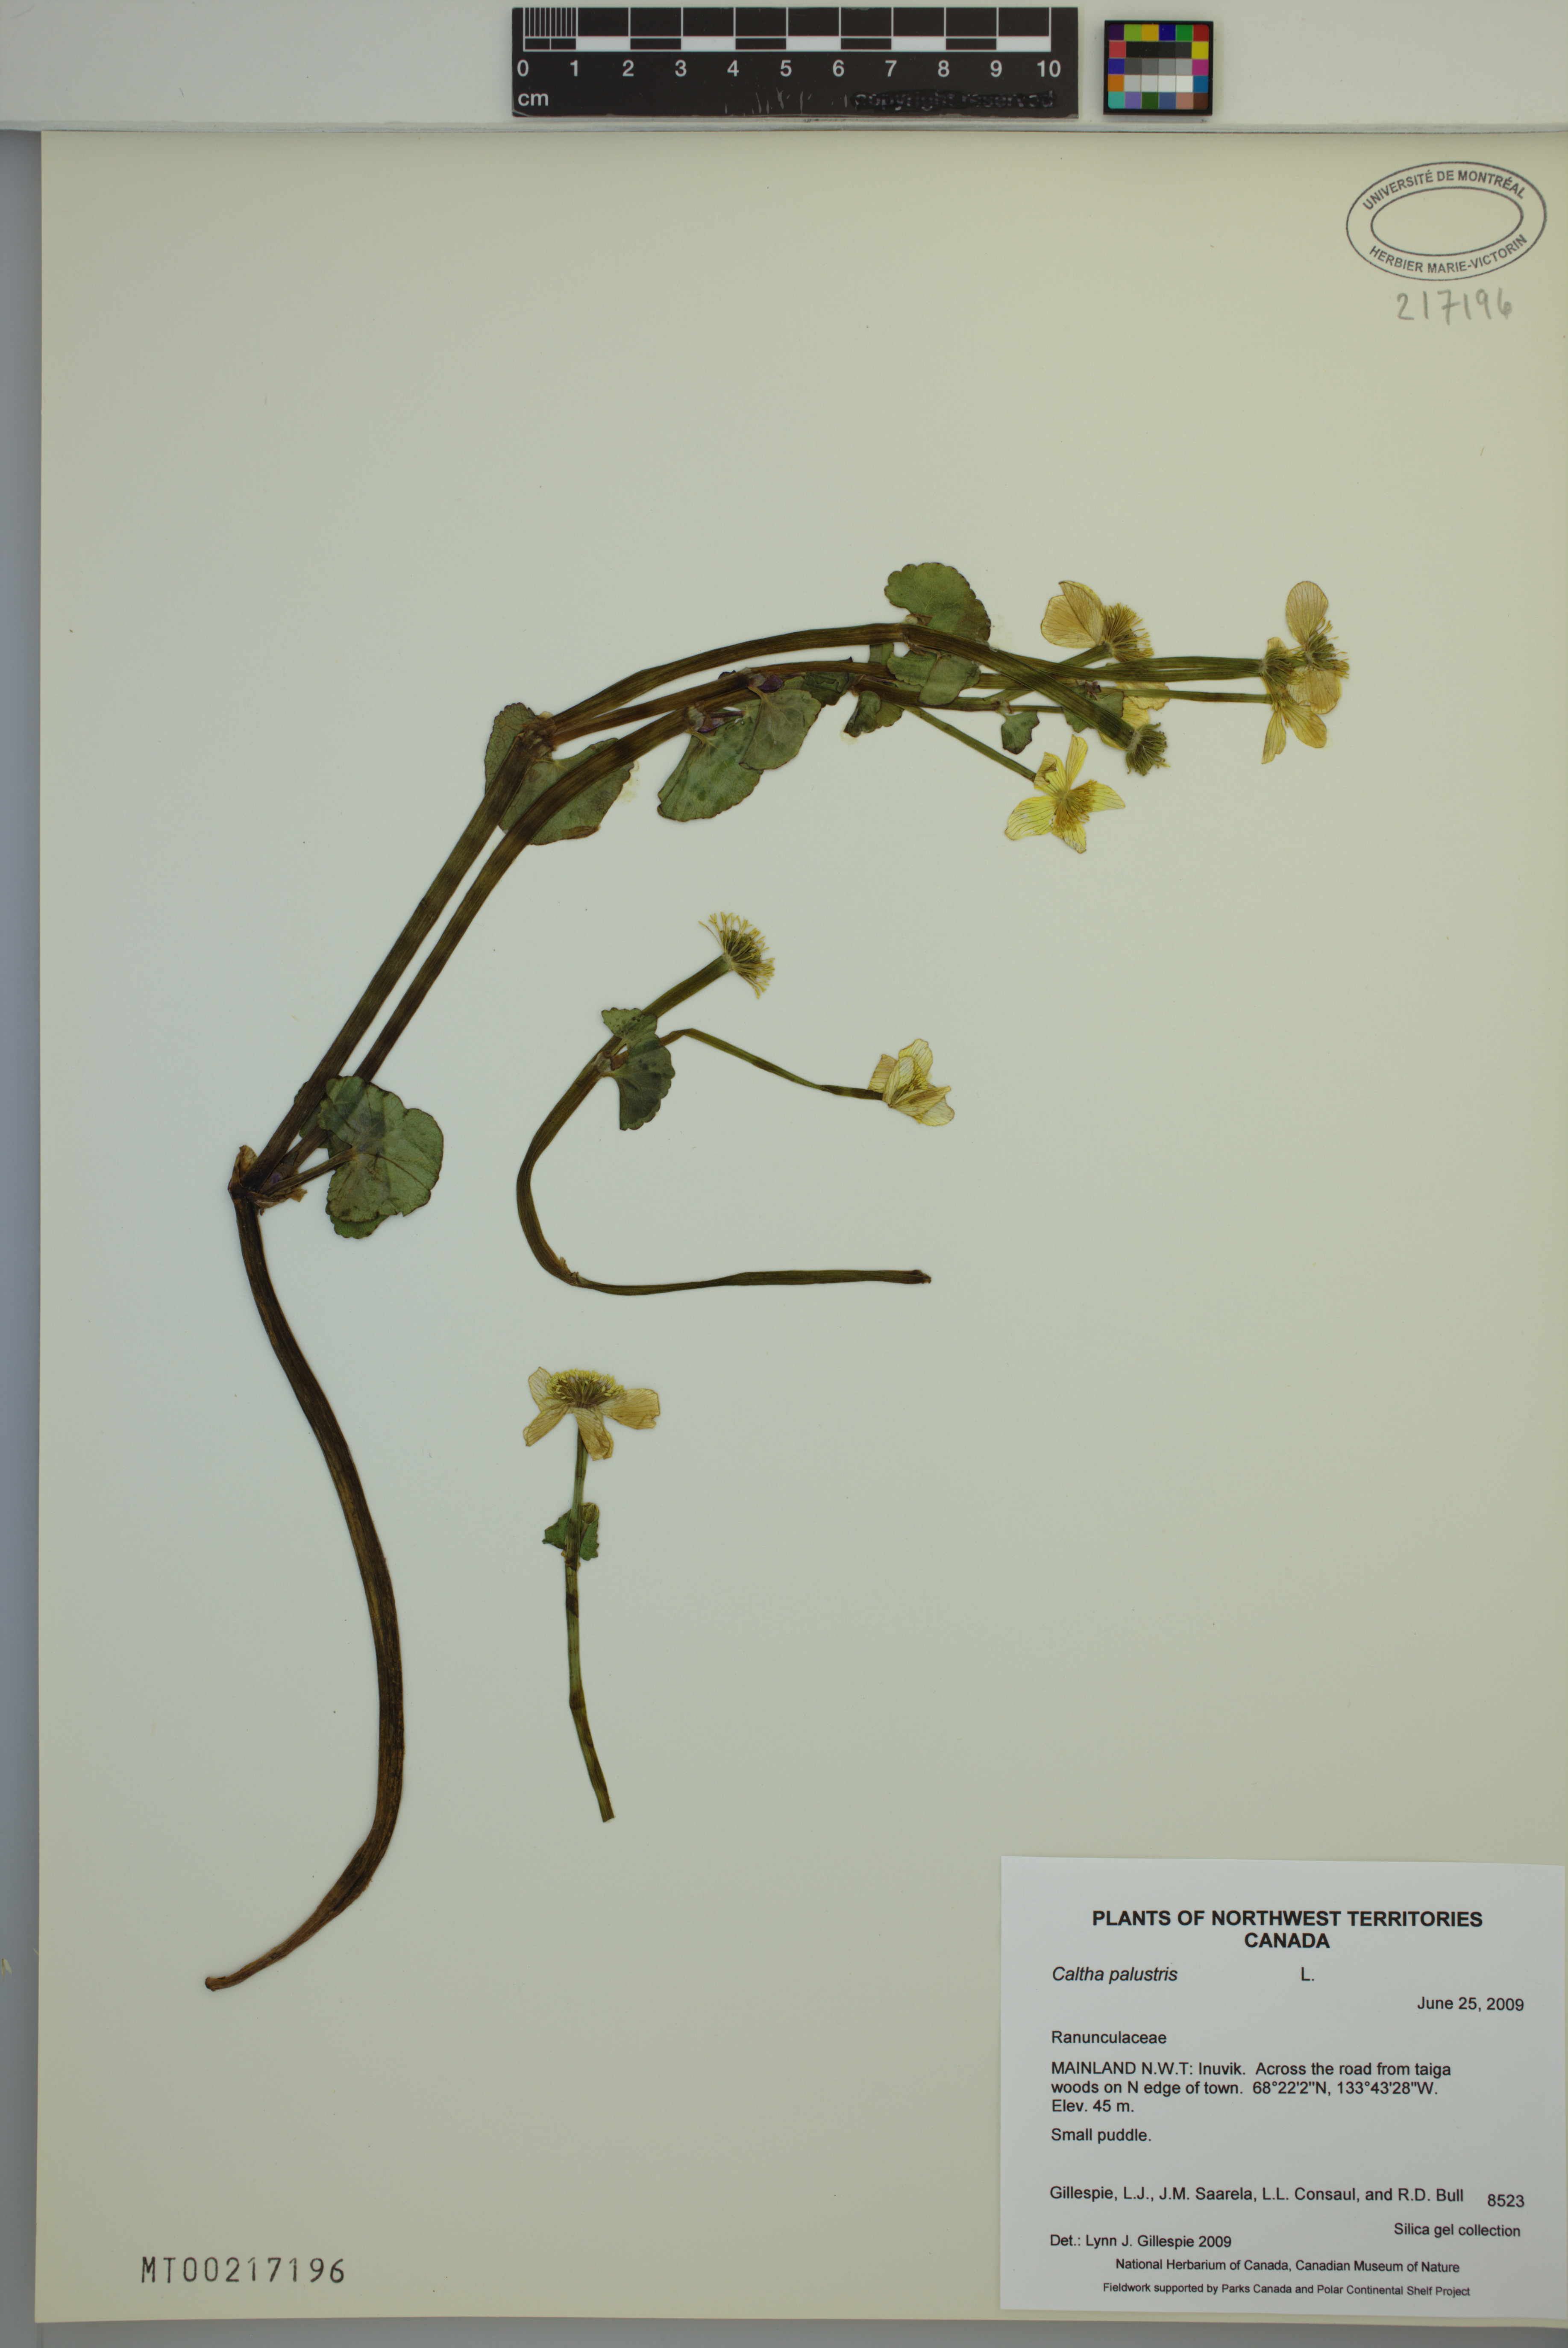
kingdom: Plantae
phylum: Tracheophyta
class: Magnoliopsida
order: Ranunculales
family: Ranunculaceae
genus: Caltha
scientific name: Caltha palustris
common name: Marsh marigold
